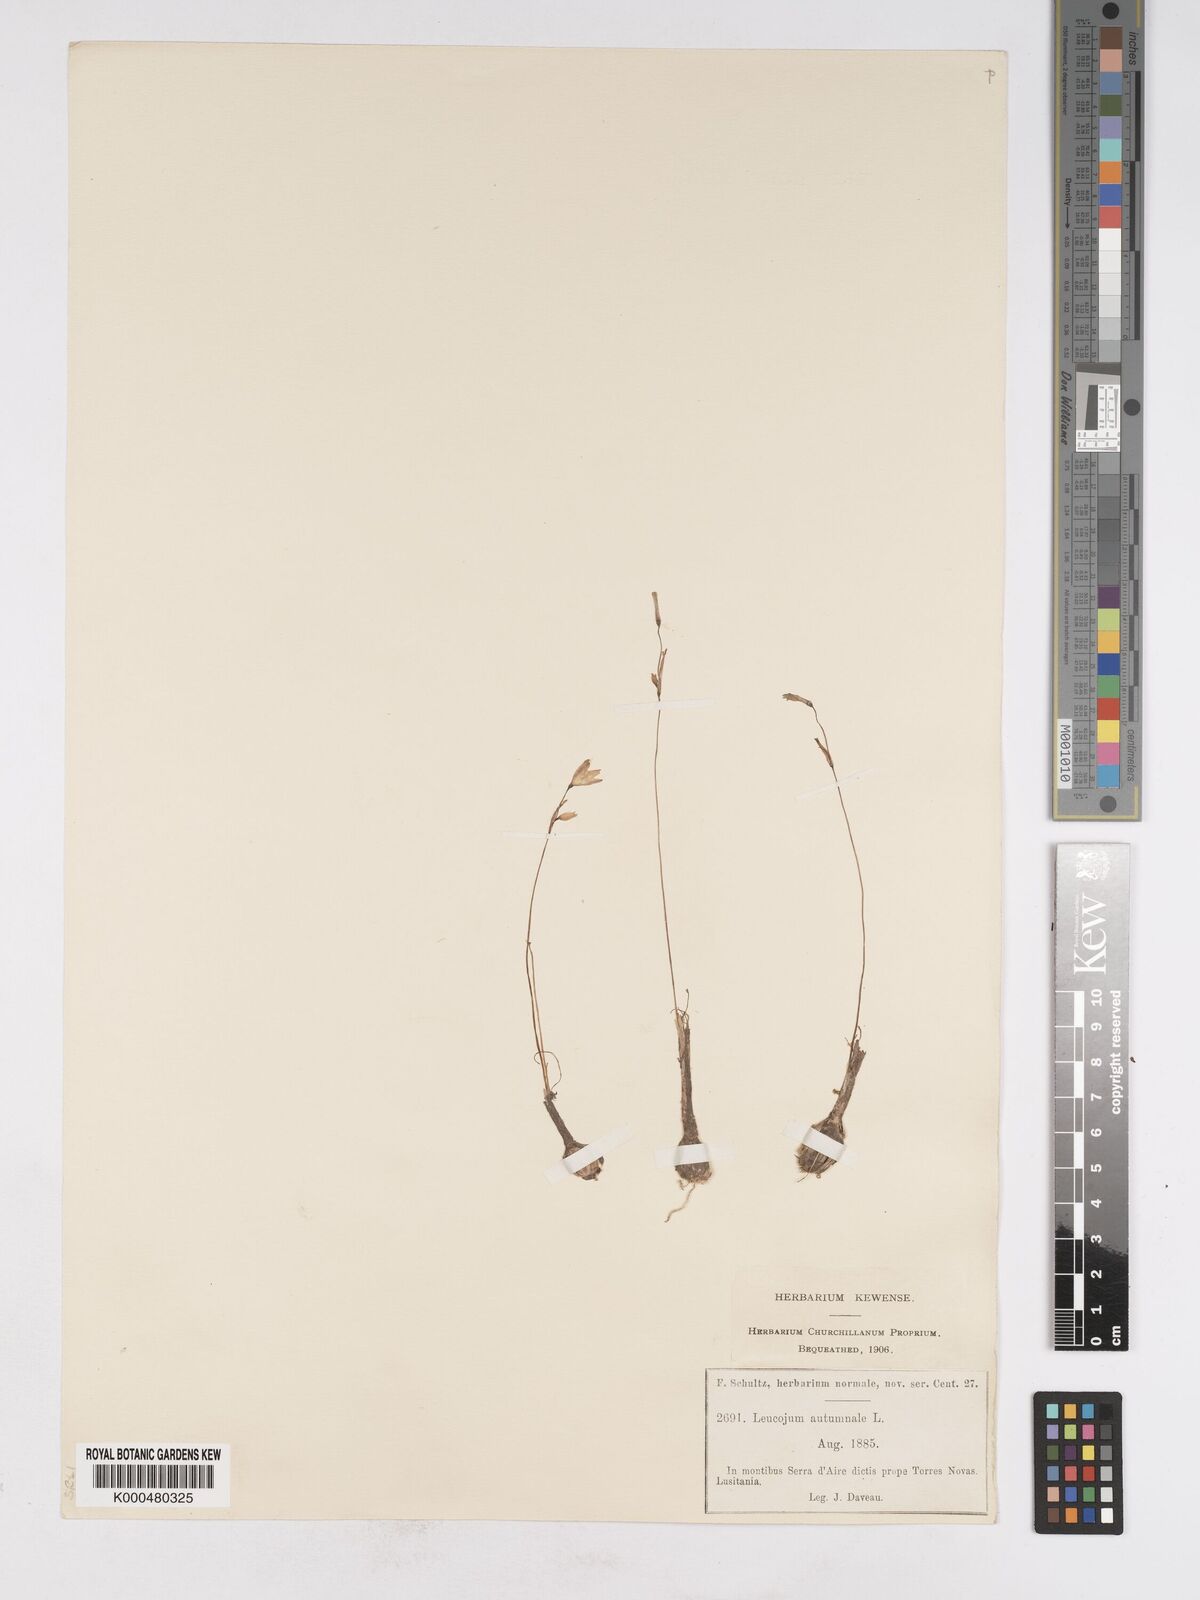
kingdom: Plantae
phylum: Tracheophyta
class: Liliopsida
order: Asparagales
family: Amaryllidaceae
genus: Acis
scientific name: Acis autumnalis
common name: Autumn snowflake
